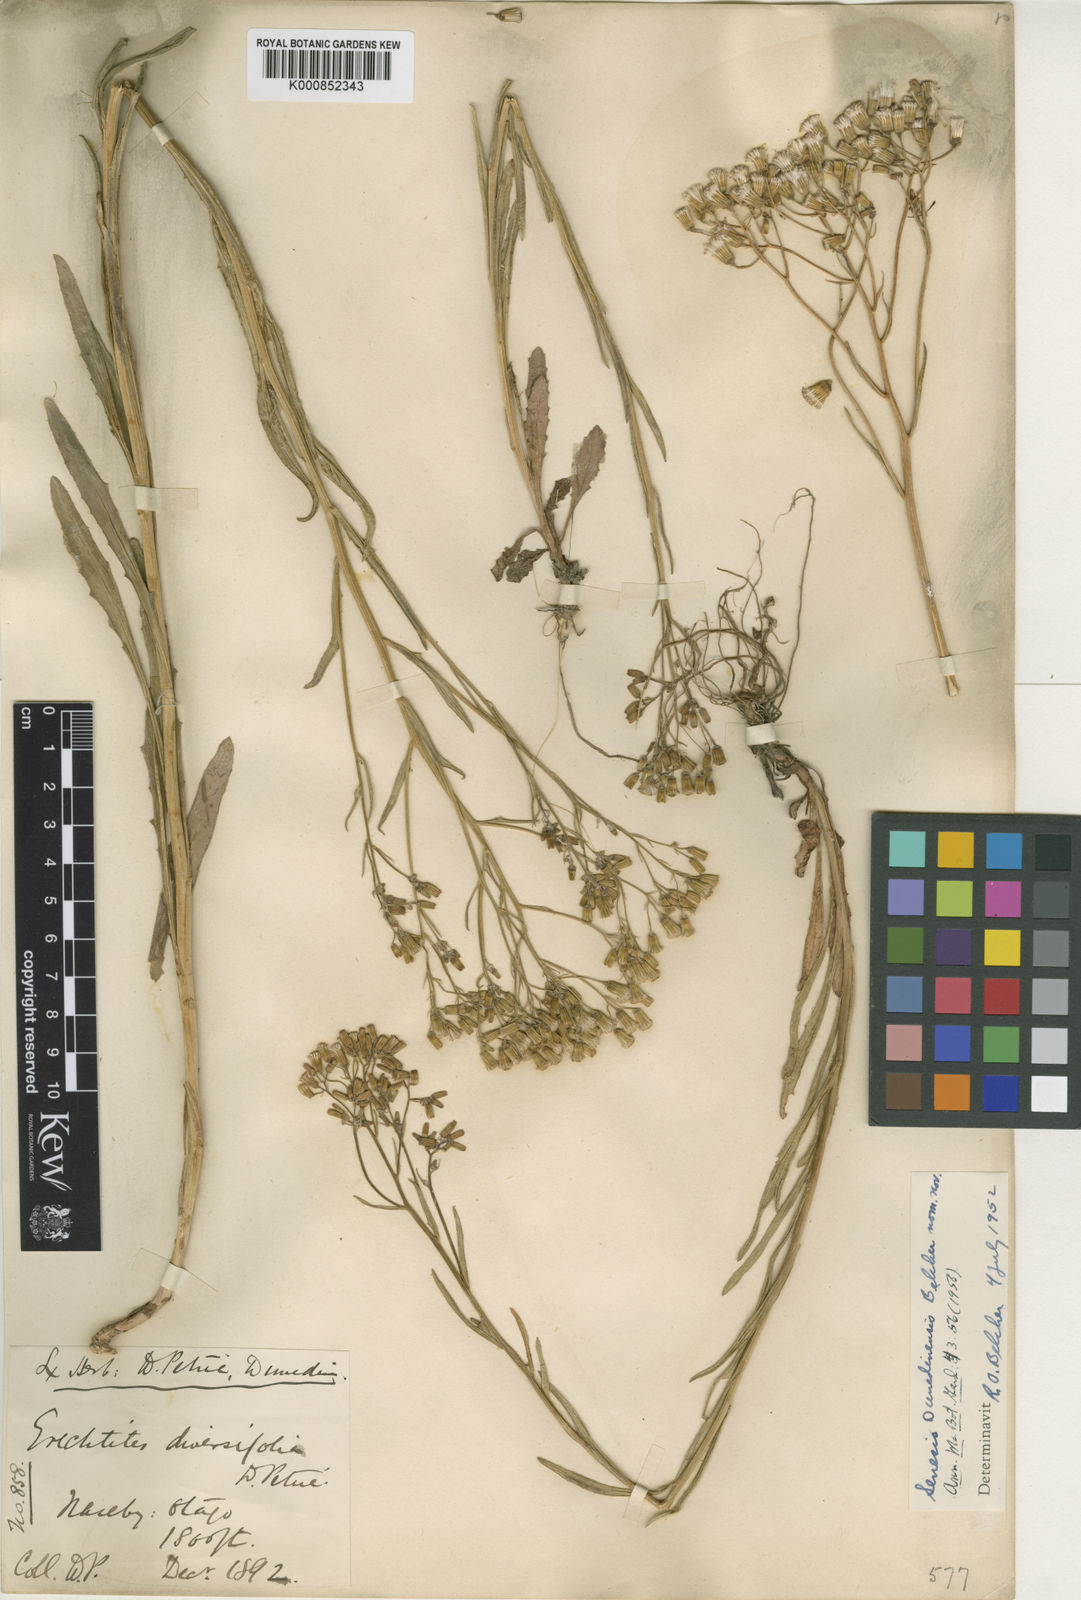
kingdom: Plantae
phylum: Tracheophyta
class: Magnoliopsida
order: Asterales
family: Asteraceae
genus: Senecio
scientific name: Senecio dunedinensis
